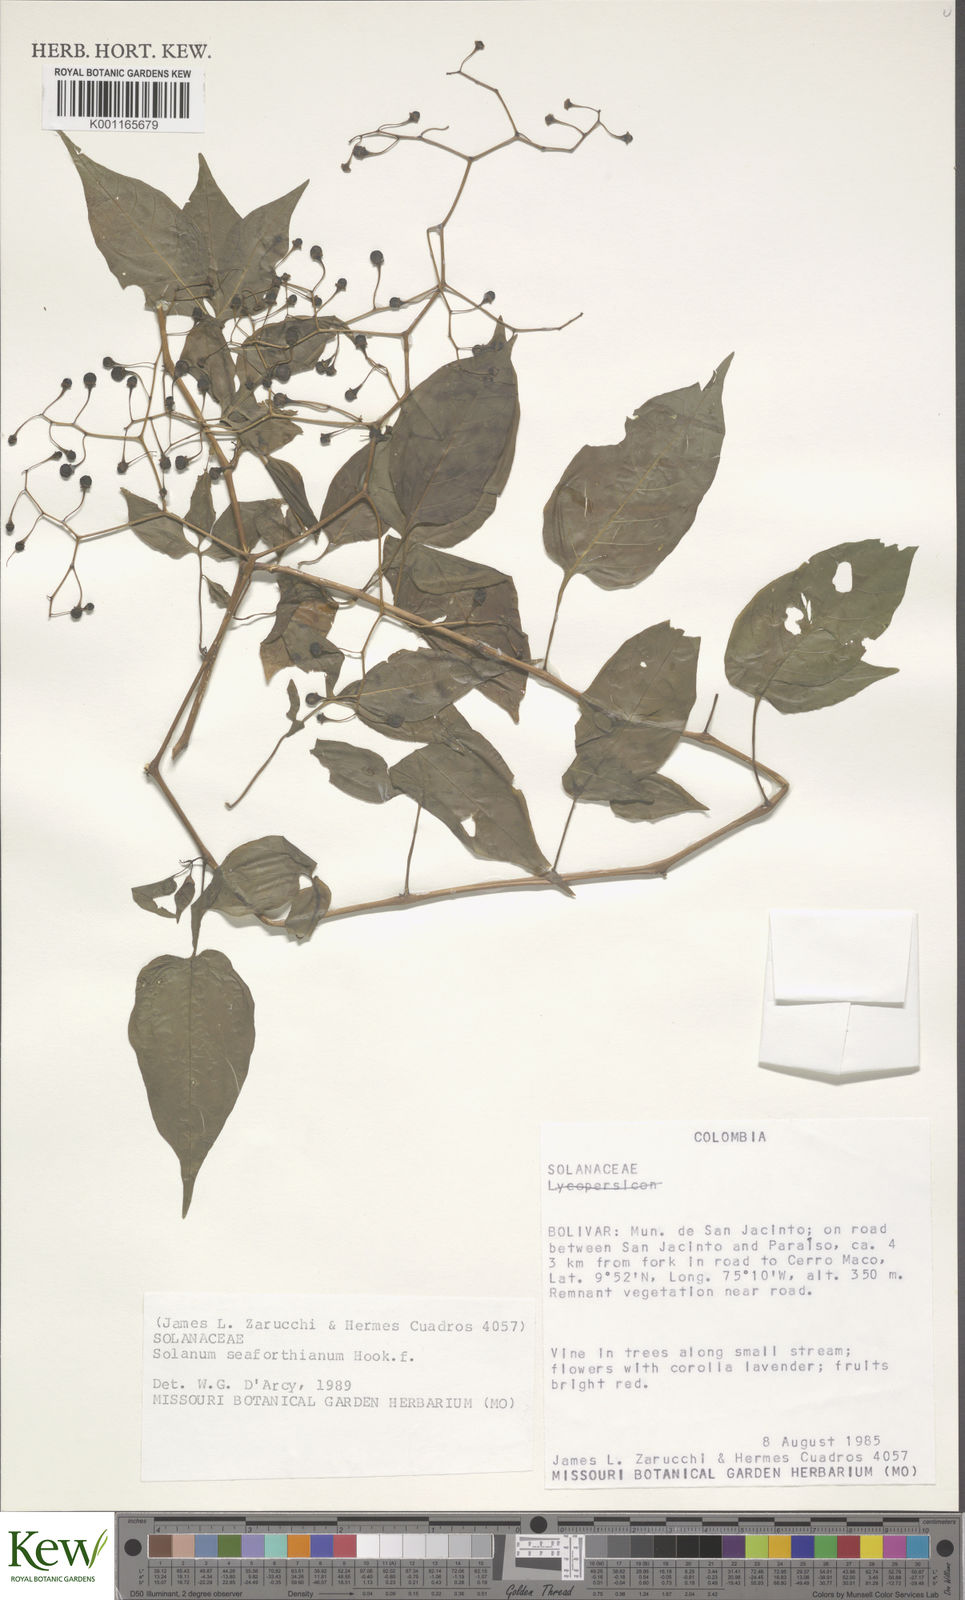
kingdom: Plantae
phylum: Tracheophyta
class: Magnoliopsida
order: Solanales
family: Solanaceae
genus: Solanum
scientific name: Solanum seaforthianum
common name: Brazilian nightshade
